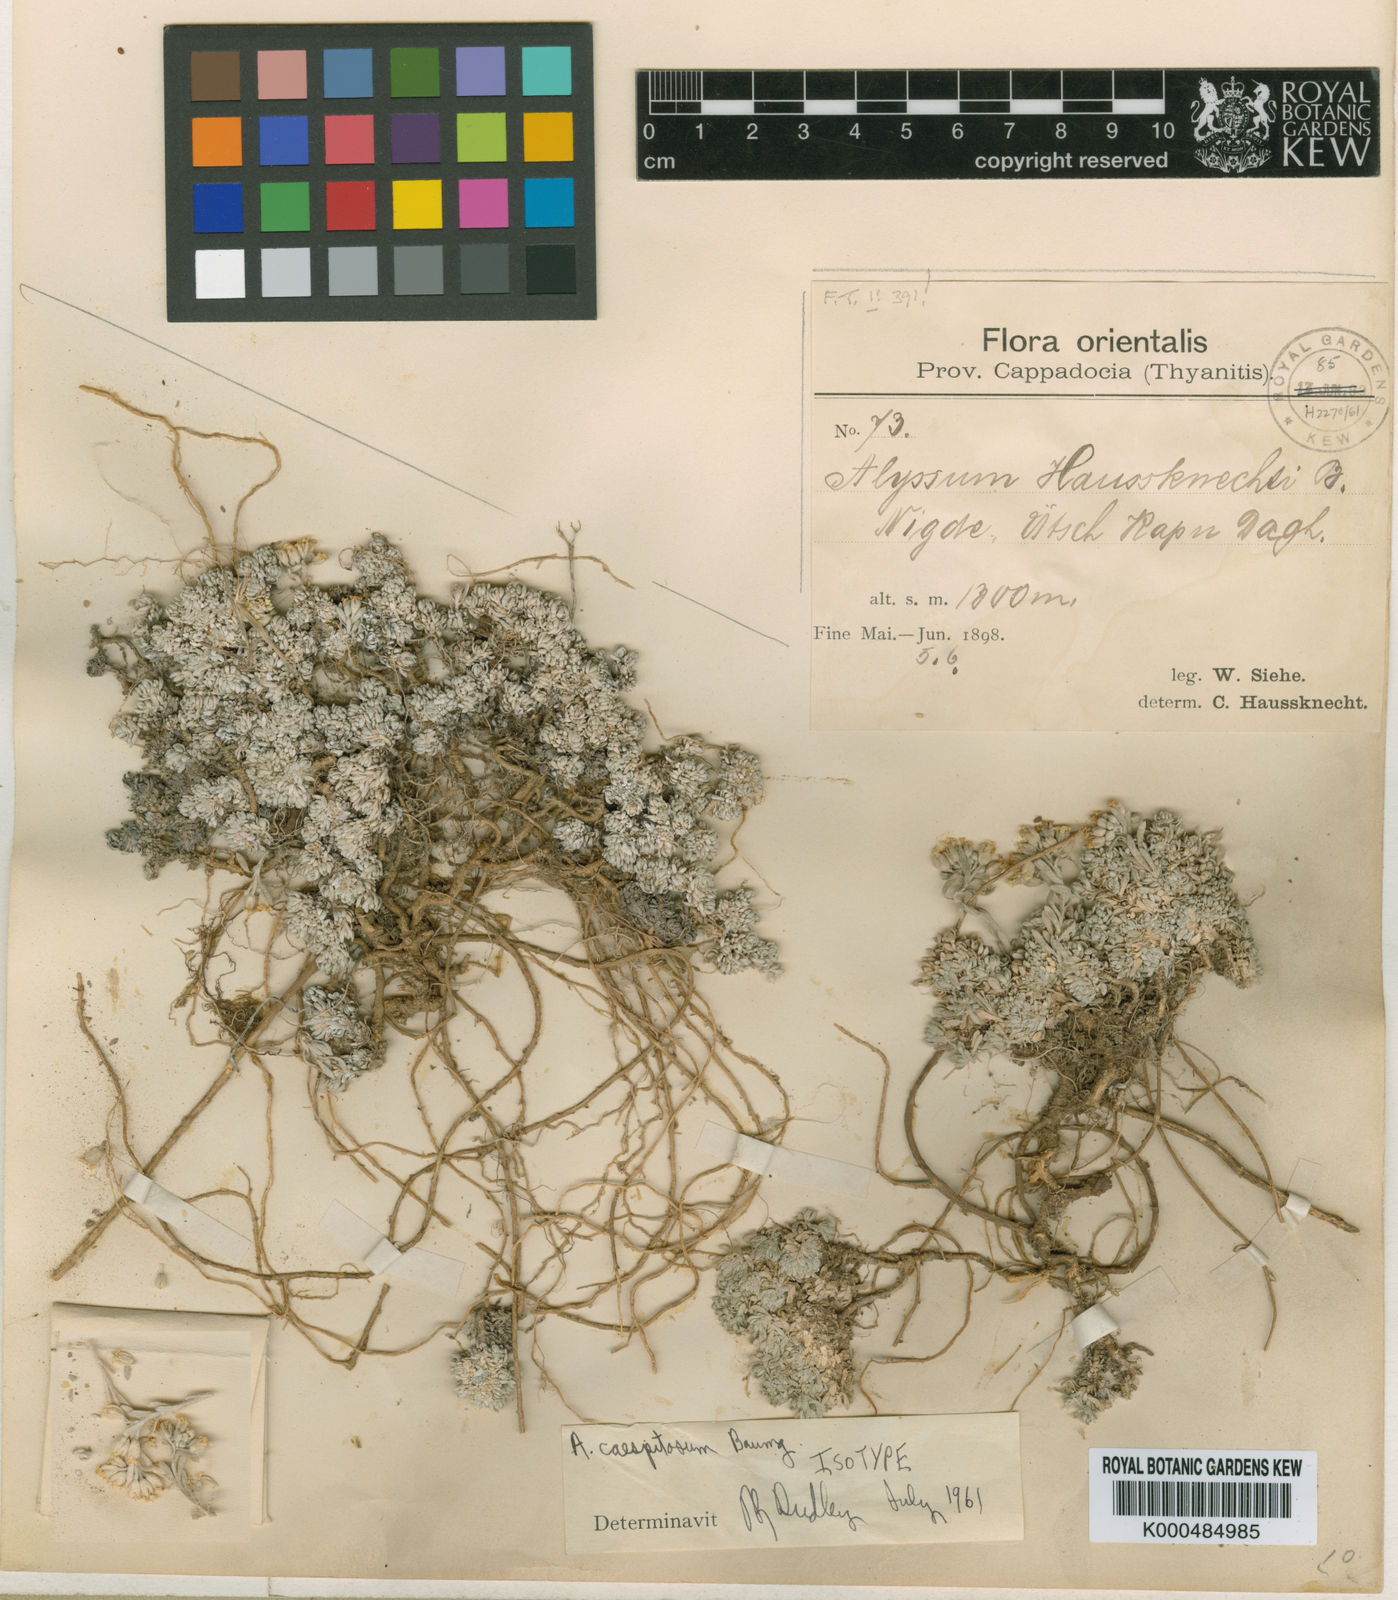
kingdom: Plantae
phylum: Tracheophyta
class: Magnoliopsida
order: Brassicales
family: Brassicaceae
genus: Alyssum
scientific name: Alyssum caespitosum
